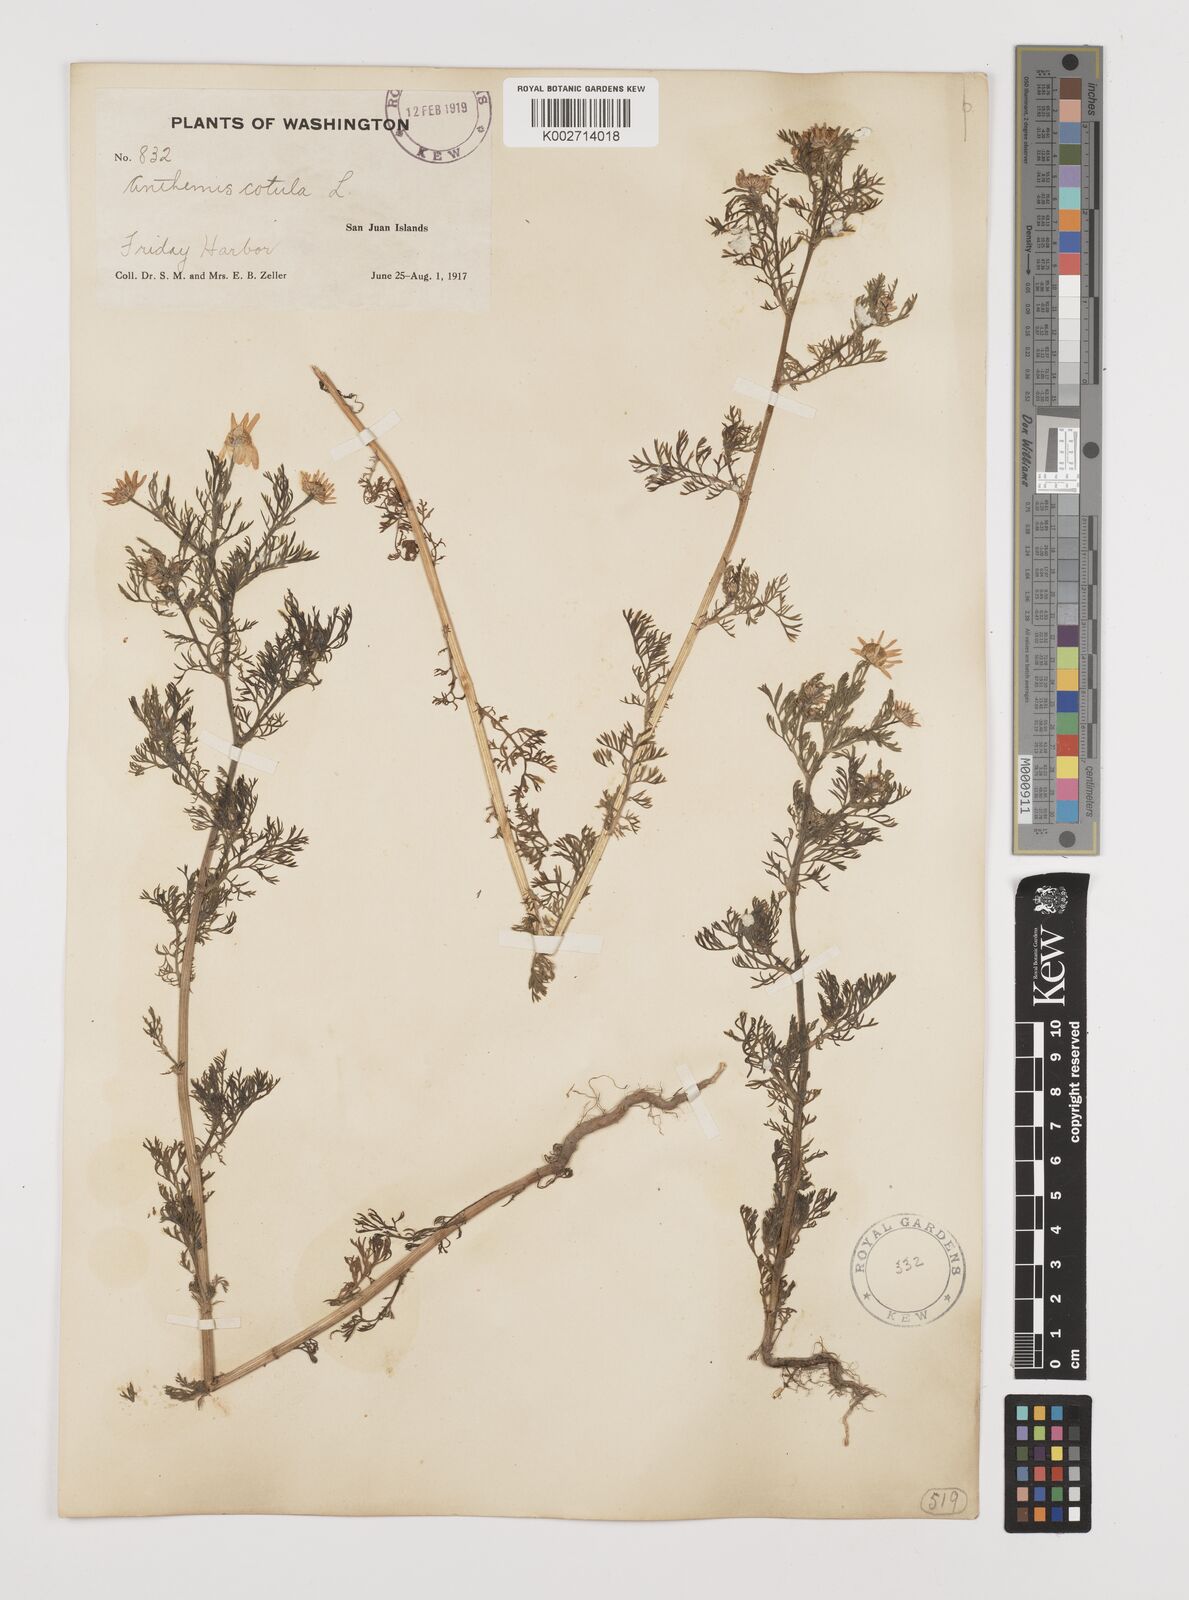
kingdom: Plantae
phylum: Tracheophyta
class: Magnoliopsida
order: Asterales
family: Asteraceae
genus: Anthemis
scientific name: Anthemis cotula
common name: Stinking chamomile
